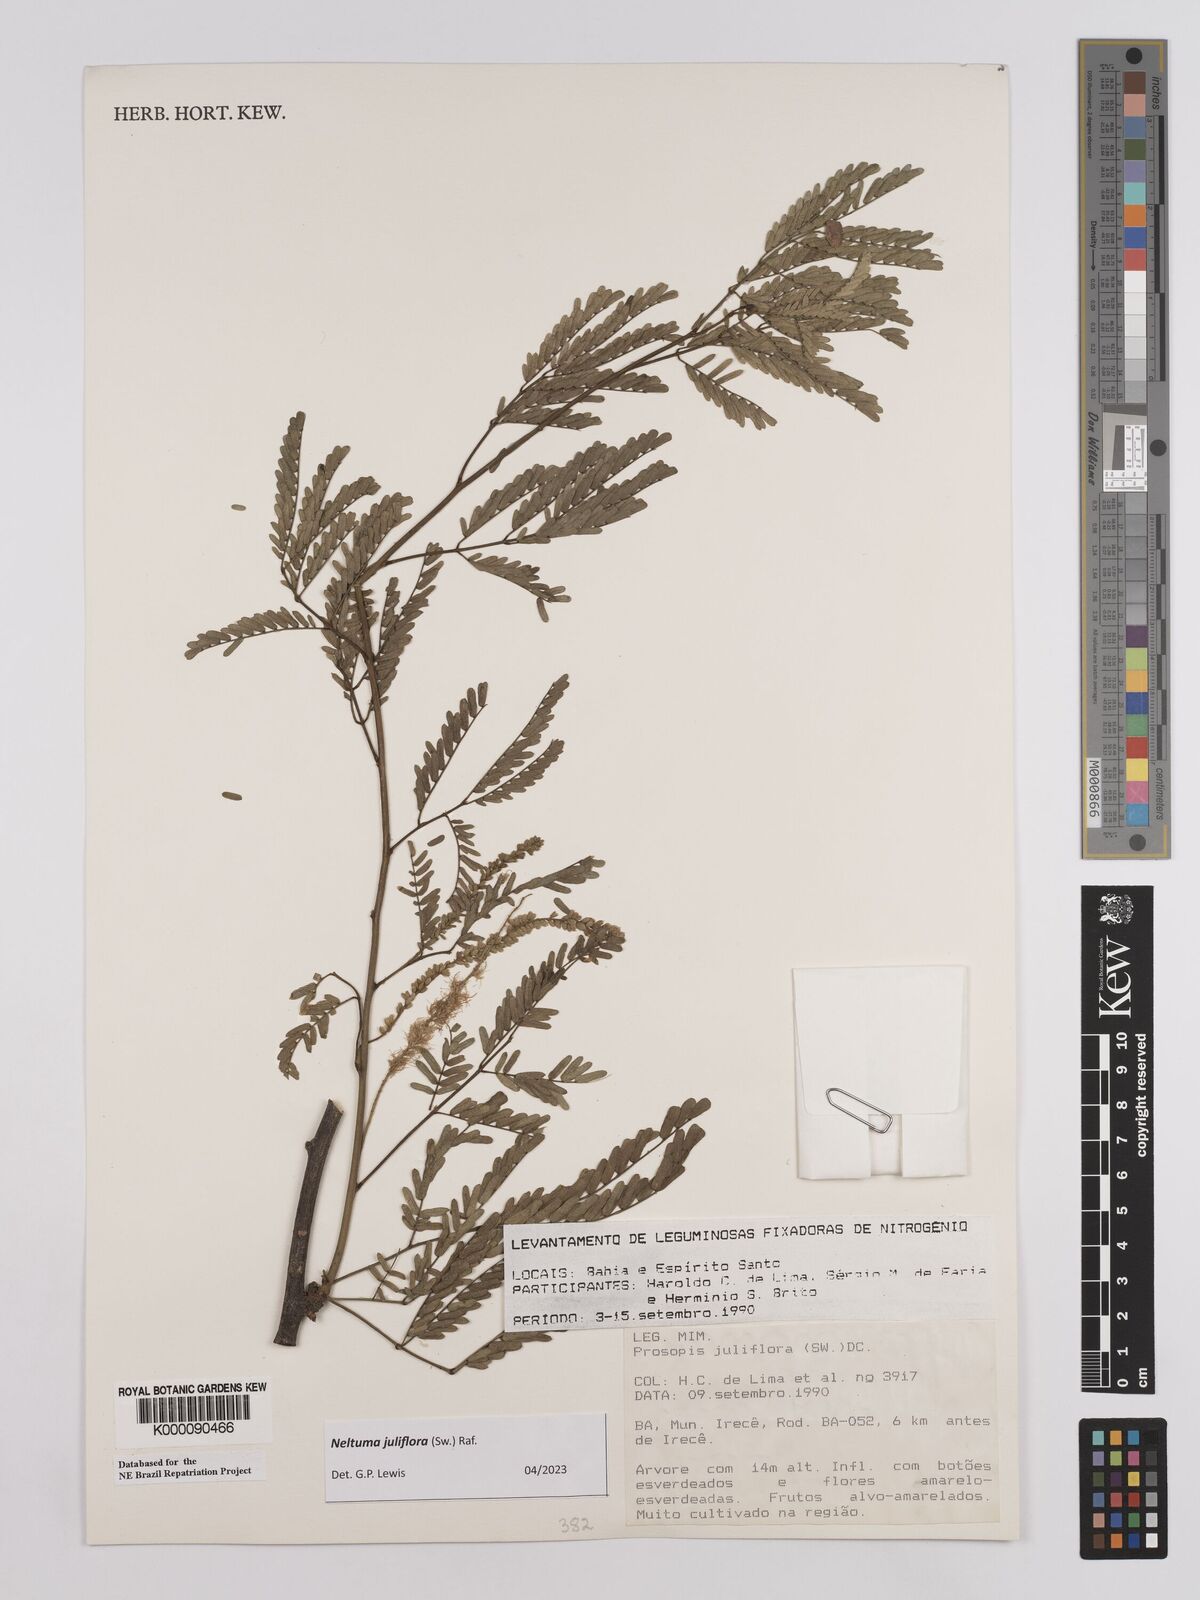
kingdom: Plantae
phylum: Tracheophyta
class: Magnoliopsida
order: Fabales
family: Fabaceae
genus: Prosopis
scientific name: Prosopis juliflora
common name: Mesquite
